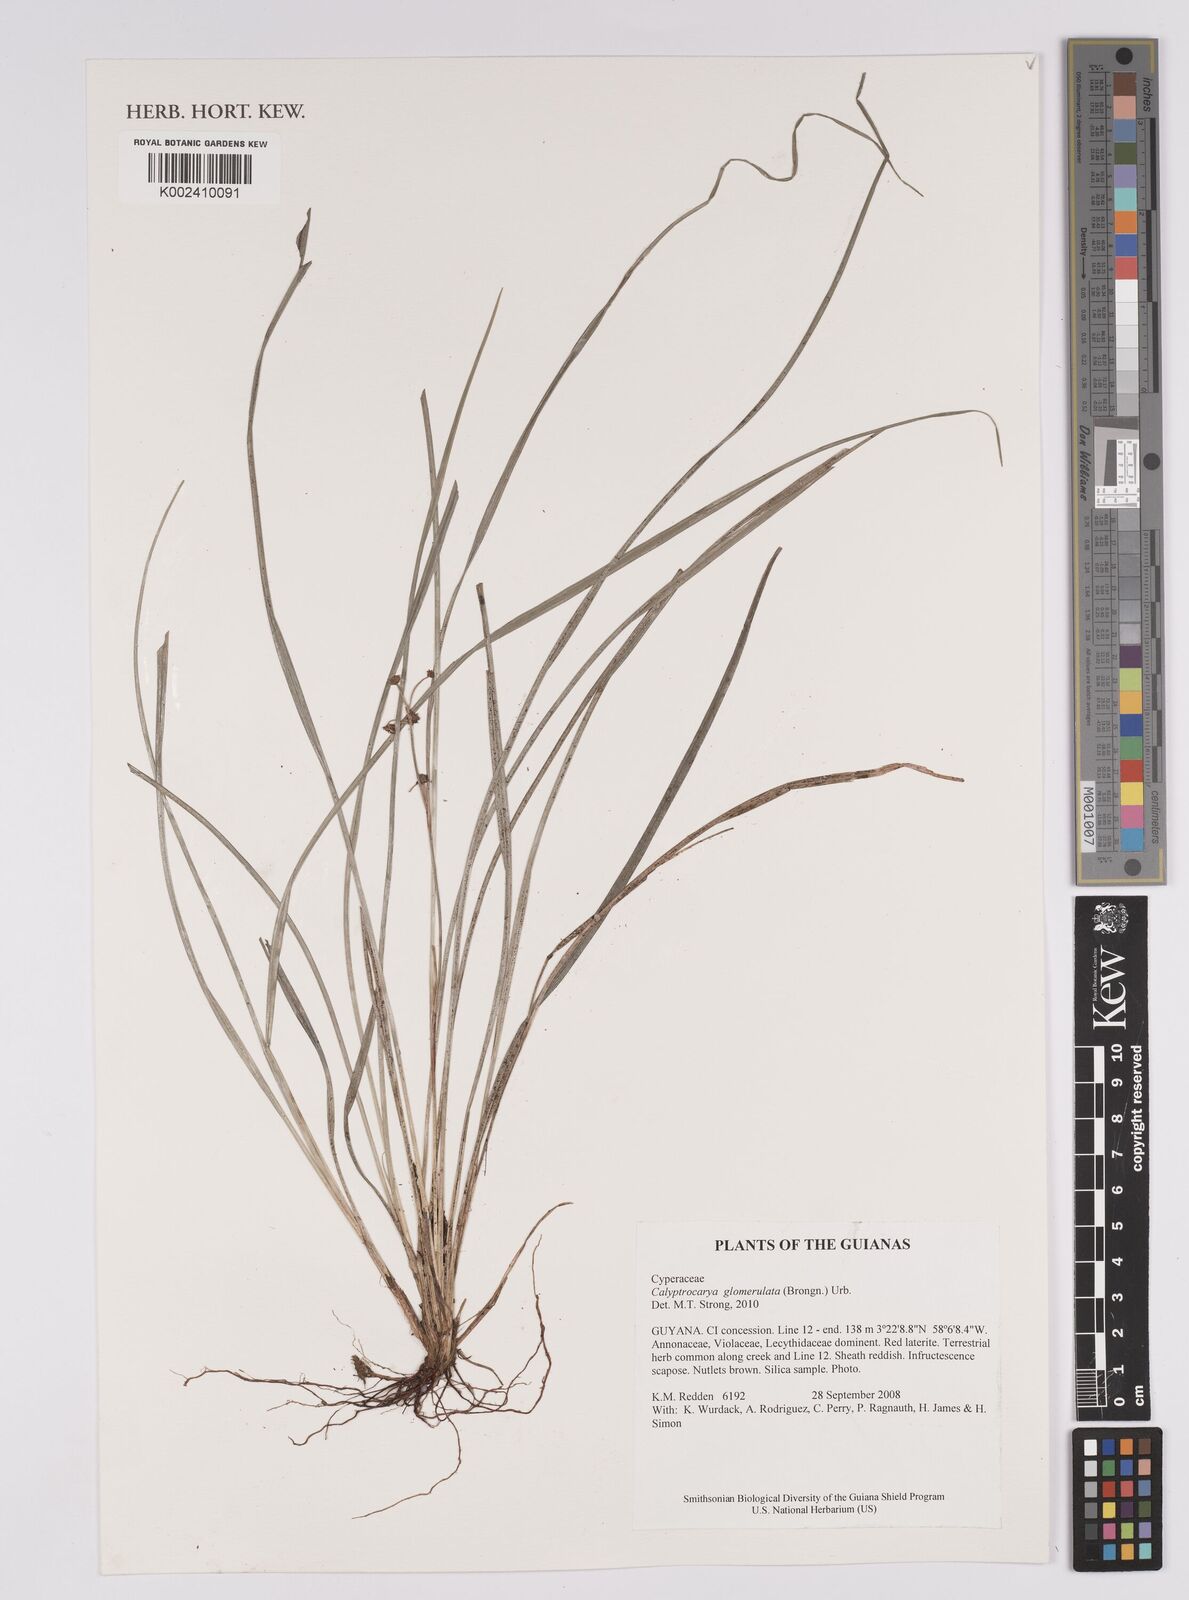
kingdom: Plantae
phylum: Tracheophyta
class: Liliopsida
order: Poales
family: Cyperaceae
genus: Calyptrocarya
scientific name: Calyptrocarya
